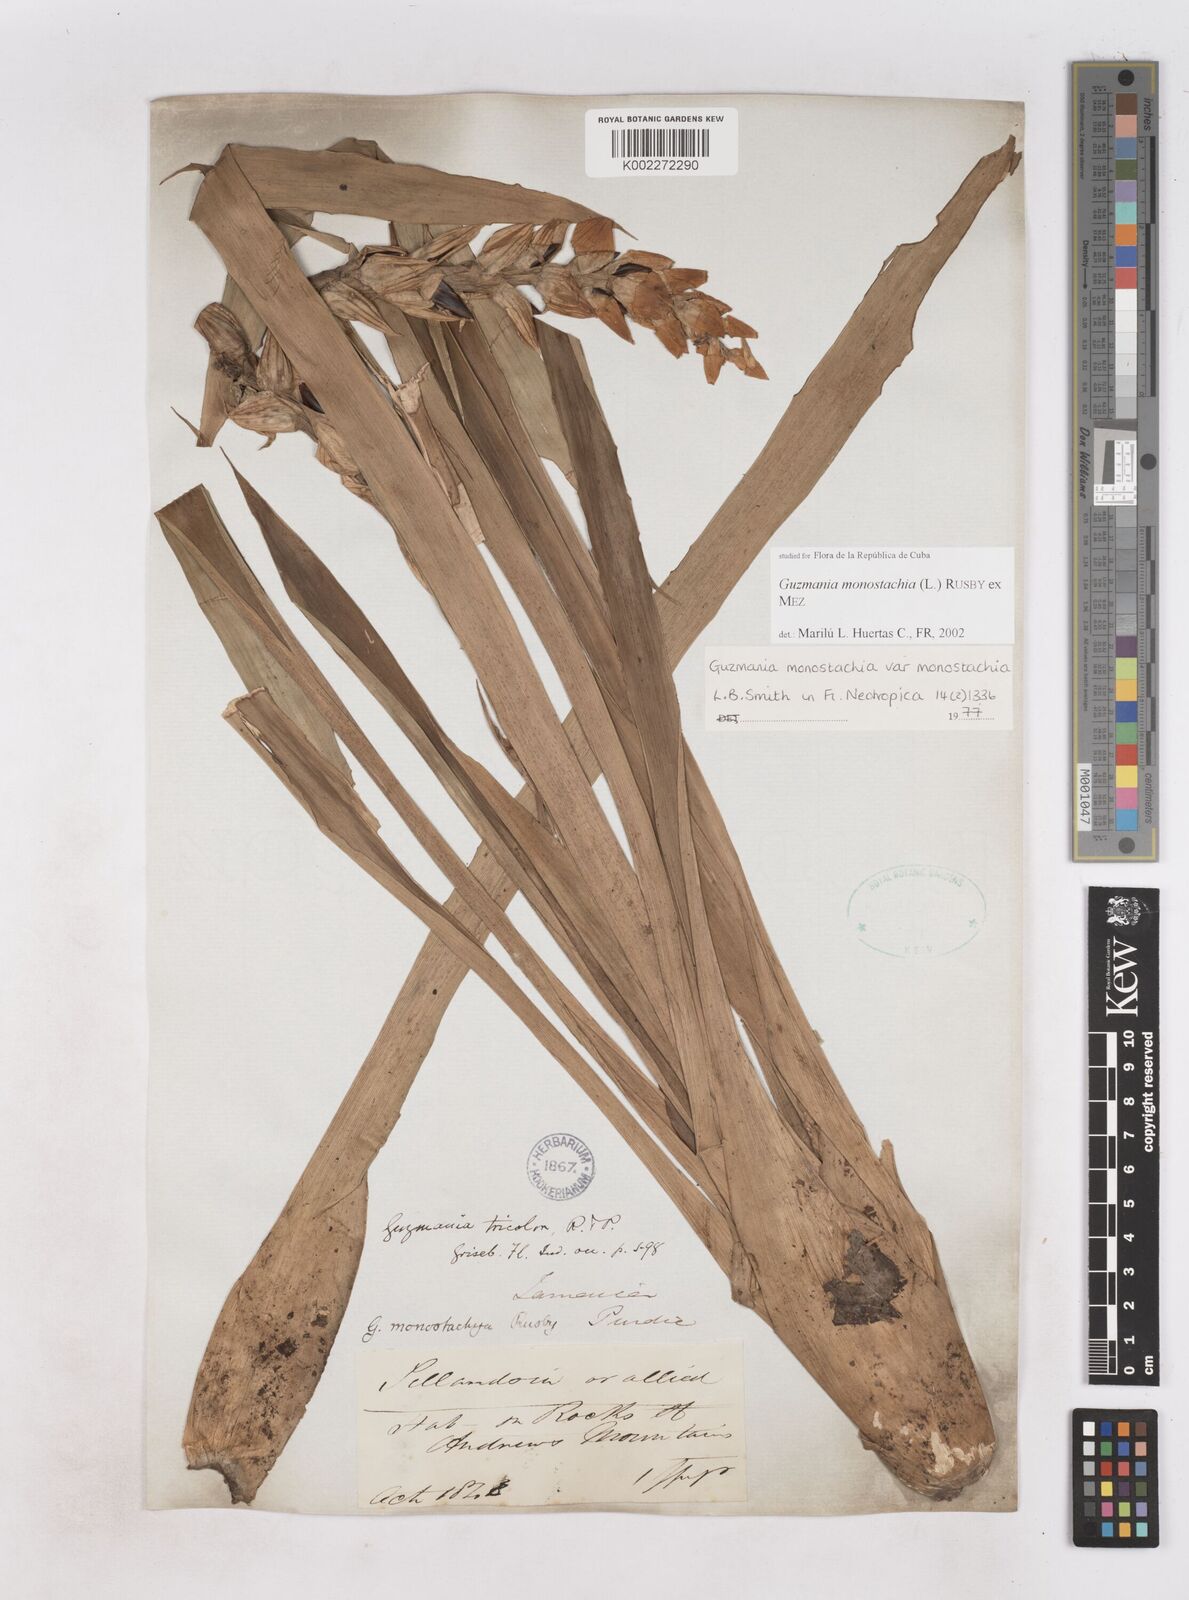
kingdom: Plantae
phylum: Tracheophyta
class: Liliopsida
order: Poales
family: Bromeliaceae
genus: Guzmania
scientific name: Guzmania monostachia
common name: West indian tufted airplant
